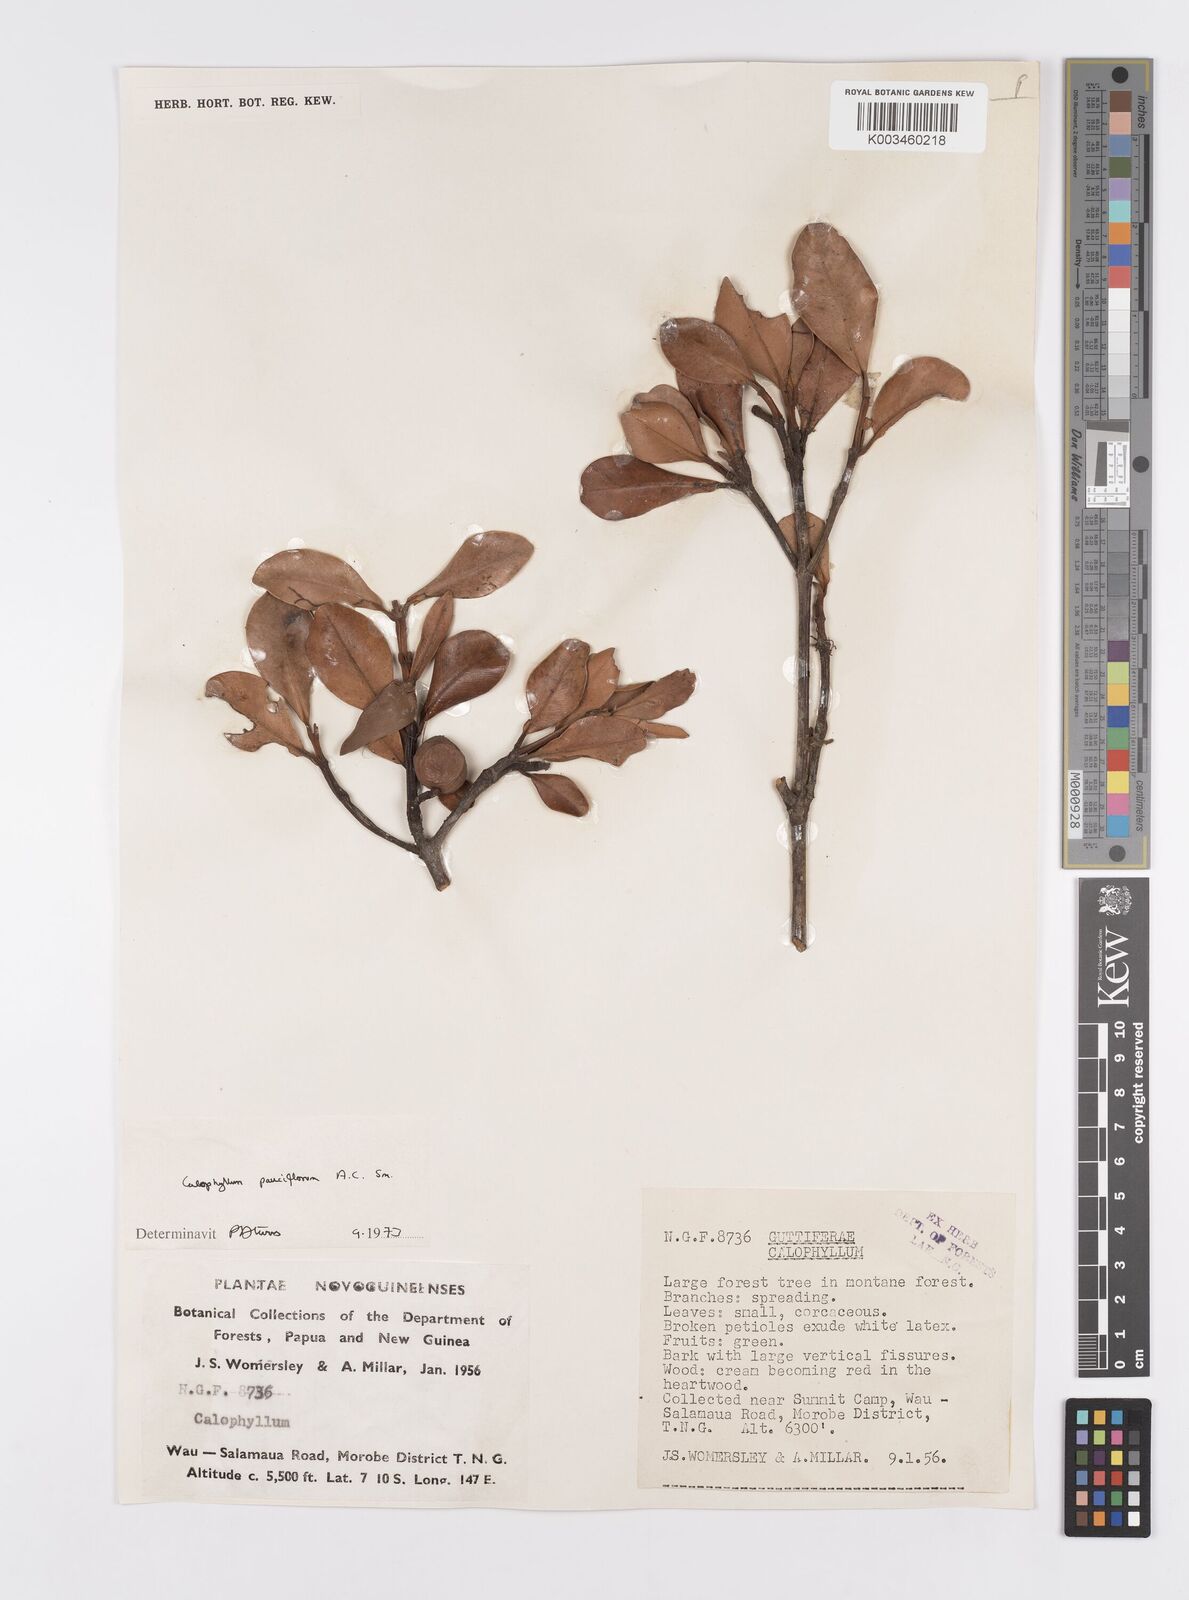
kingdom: Plantae
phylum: Tracheophyta
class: Magnoliopsida
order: Malpighiales
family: Calophyllaceae
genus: Calophyllum
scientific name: Calophyllum parviflorum
